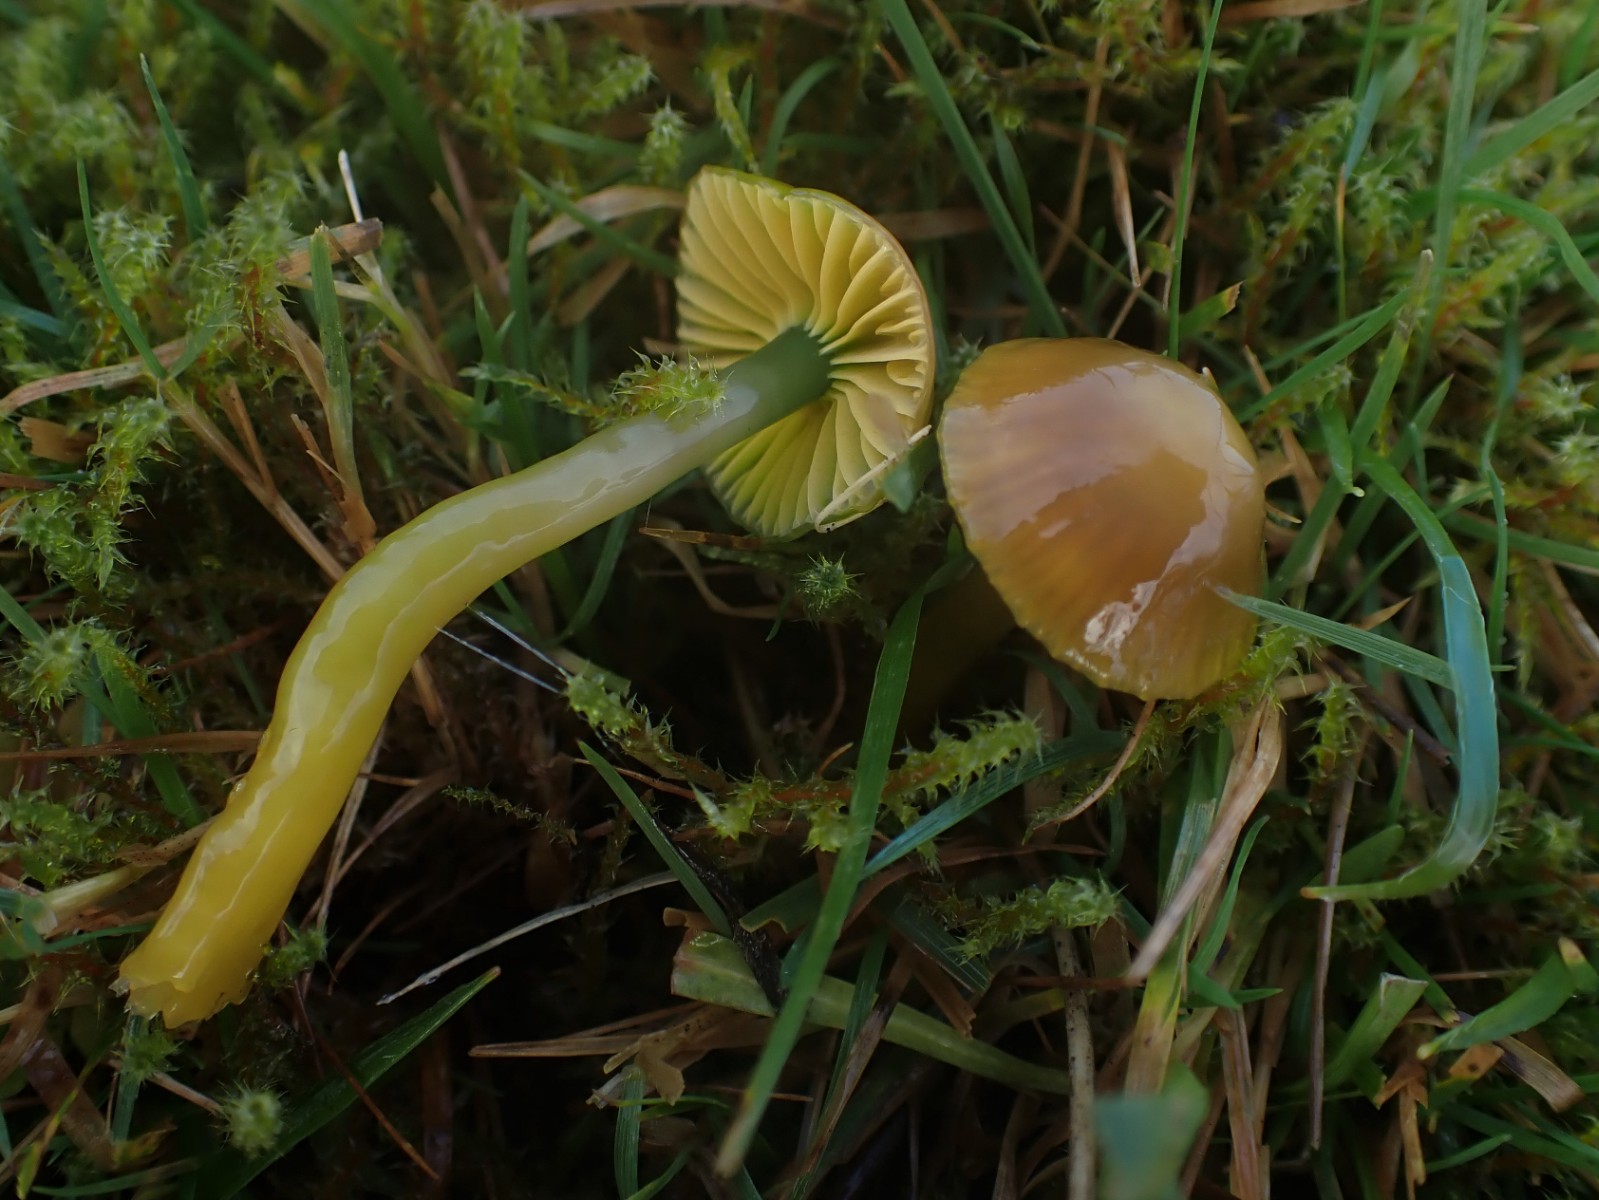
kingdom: Fungi
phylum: Basidiomycota
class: Agaricomycetes
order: Agaricales
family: Hygrophoraceae
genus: Gliophorus
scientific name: Gliophorus psittacinus
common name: papegøje-vokshat
